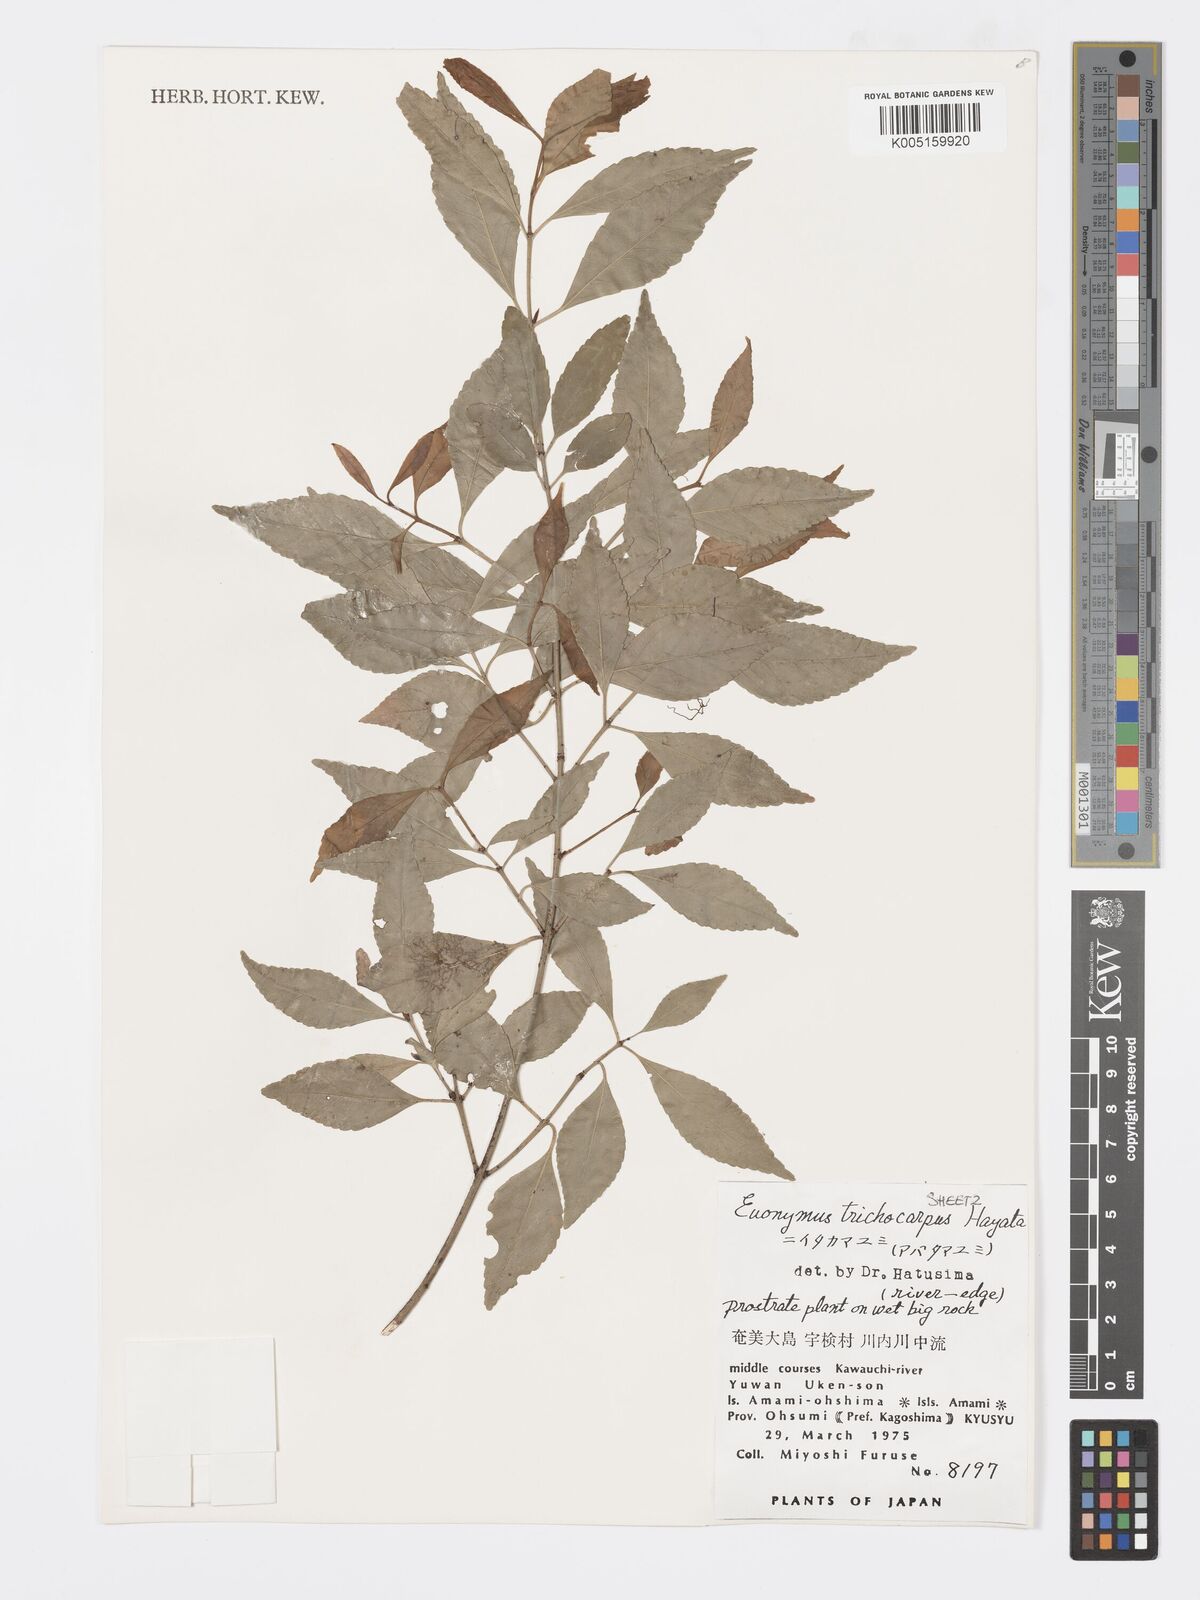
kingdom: Plantae
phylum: Tracheophyta
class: Magnoliopsida
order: Celastrales
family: Celastraceae
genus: Euonymus
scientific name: Euonymus echinatus
